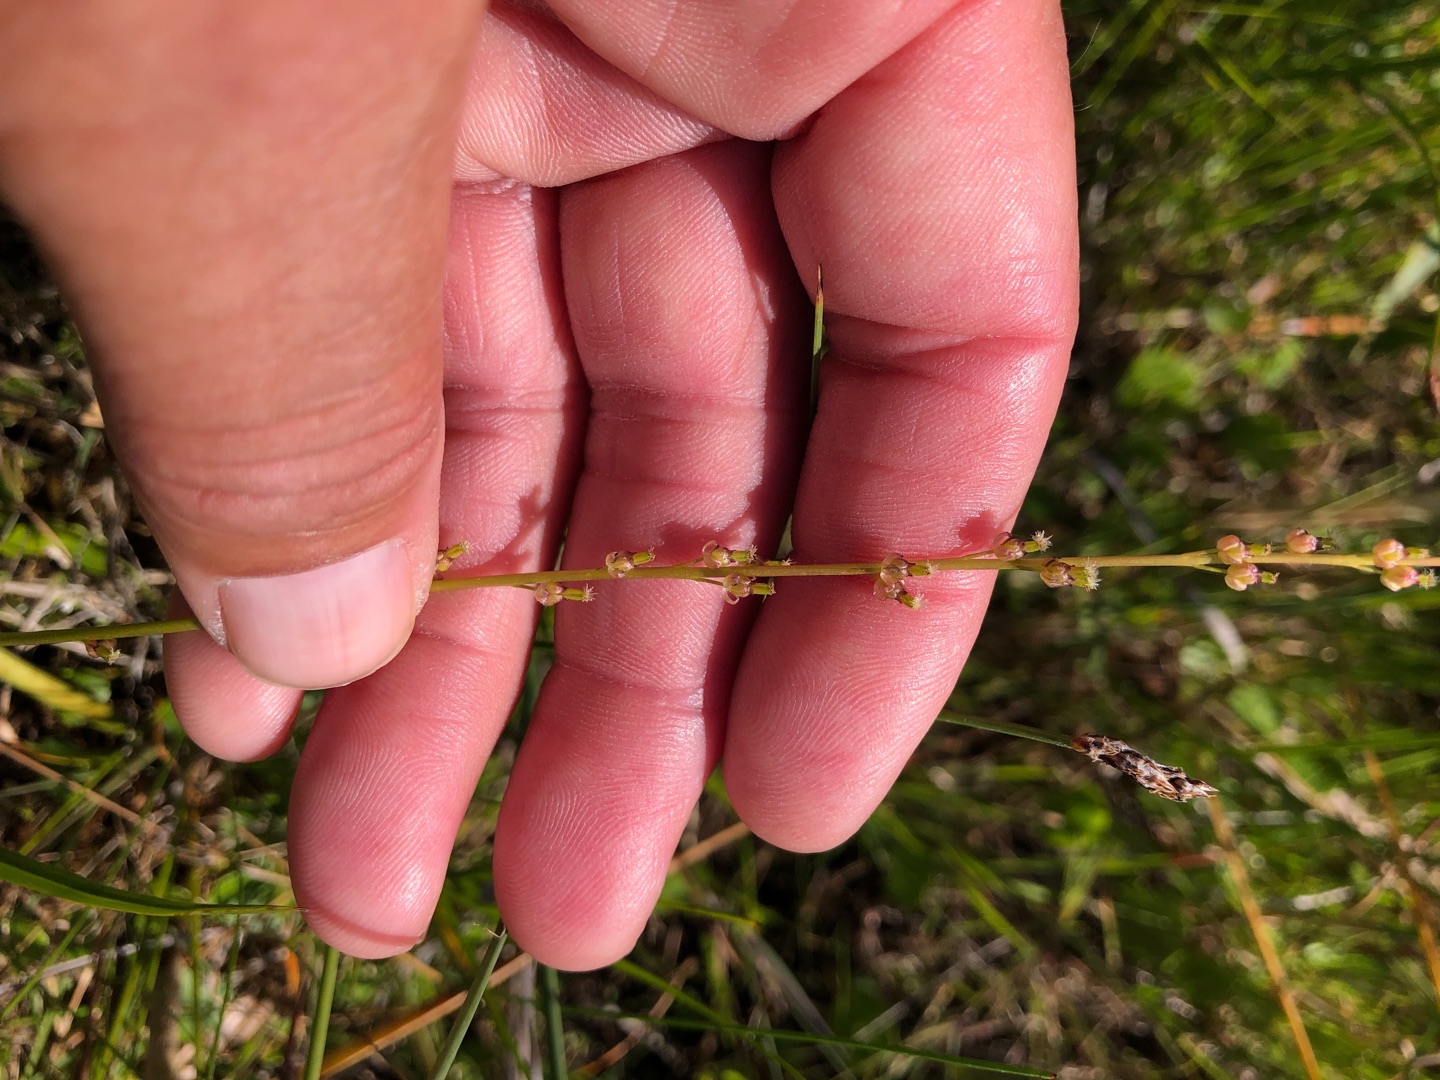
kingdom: Plantae
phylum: Tracheophyta
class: Liliopsida
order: Alismatales
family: Juncaginaceae
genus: Triglochin
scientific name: Triglochin palustris
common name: Kær-trehage
